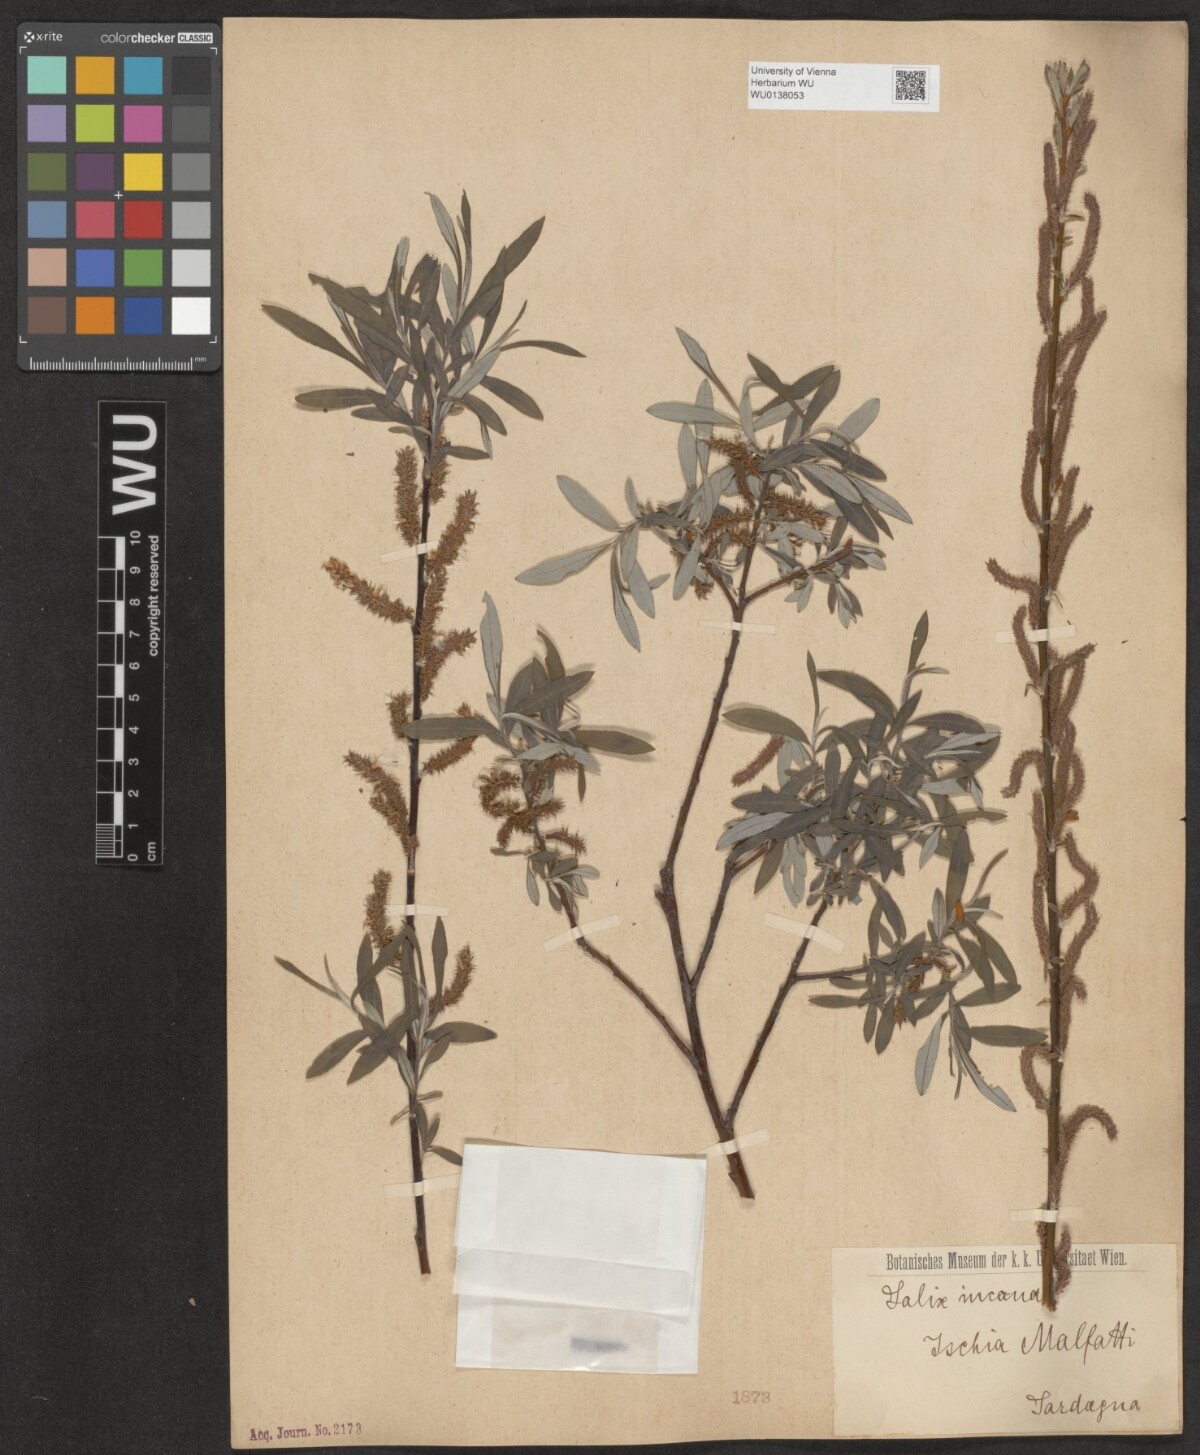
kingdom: Plantae
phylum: Tracheophyta
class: Magnoliopsida
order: Malpighiales
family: Salicaceae
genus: Salix
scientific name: Salix eleagnos
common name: Elaeagnus willow
